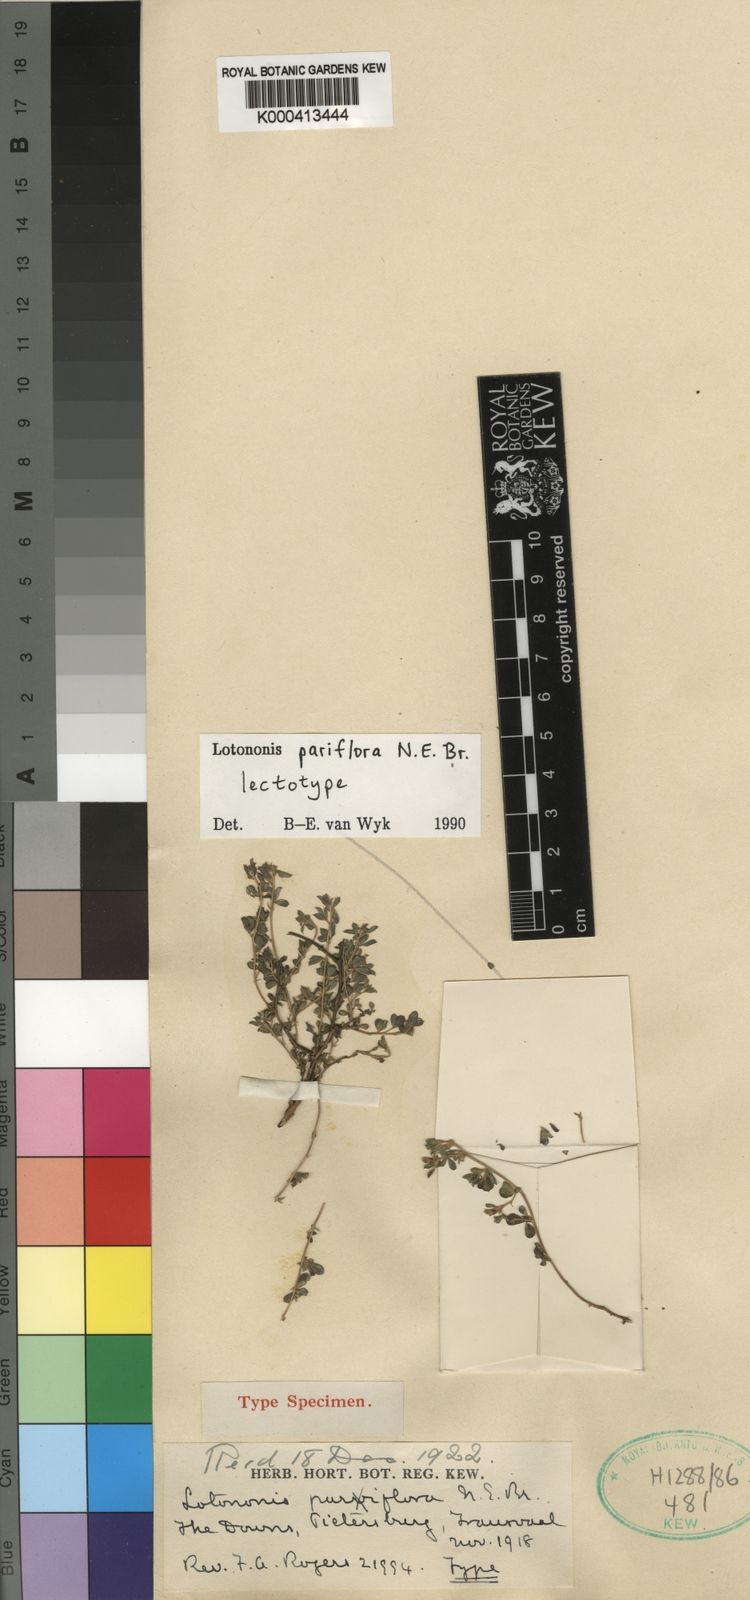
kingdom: Plantae
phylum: Tracheophyta
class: Magnoliopsida
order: Fabales
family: Fabaceae
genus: Leobordea
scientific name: Leobordea pariflora
